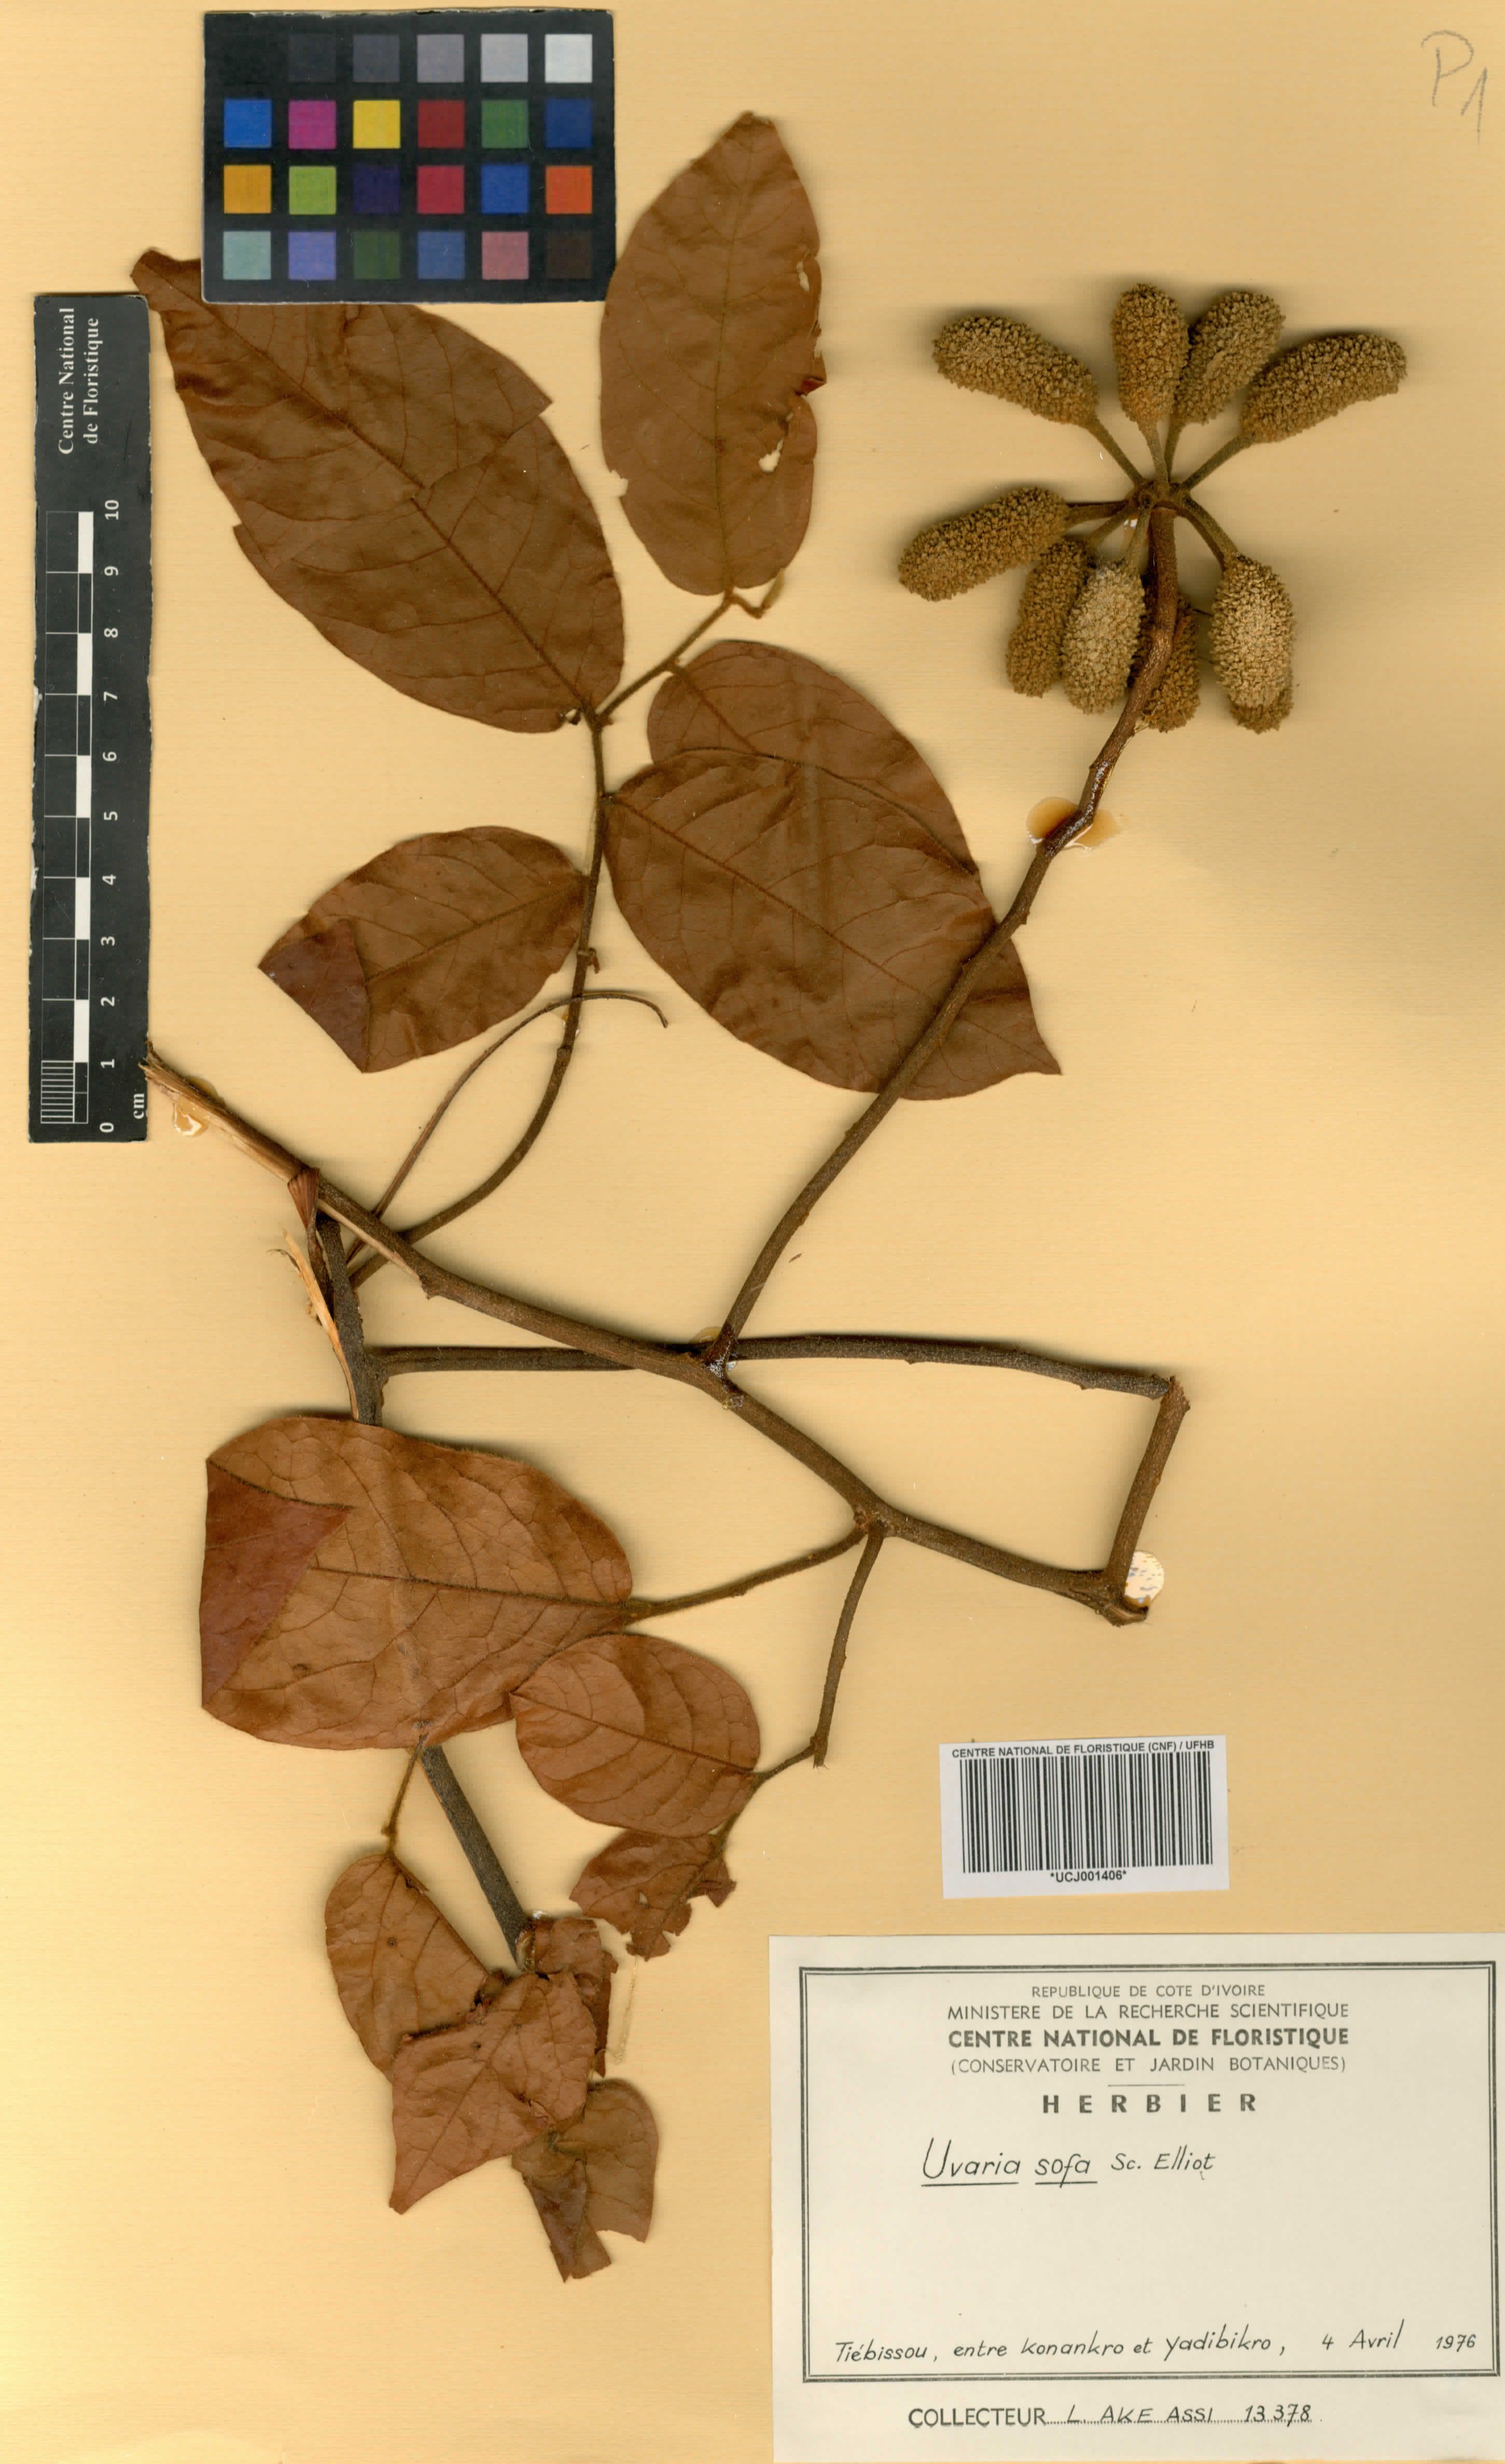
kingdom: Plantae
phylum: Tracheophyta
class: Magnoliopsida
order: Magnoliales
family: Annonaceae
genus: Uvaria
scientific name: Uvaria sofa
